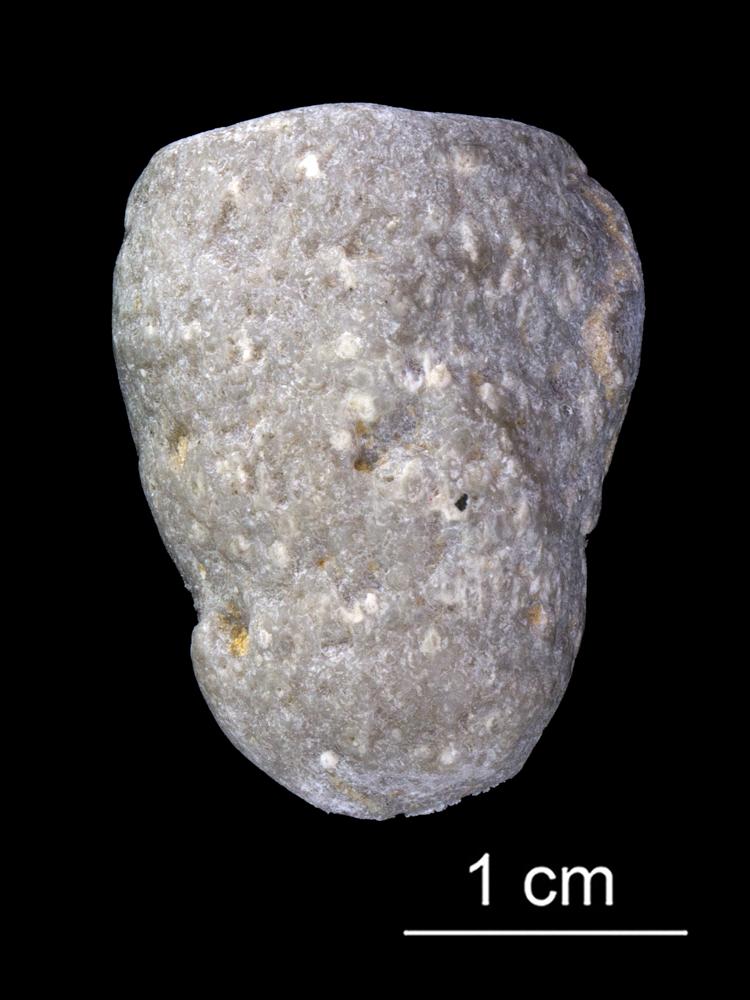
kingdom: Animalia
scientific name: Animalia
